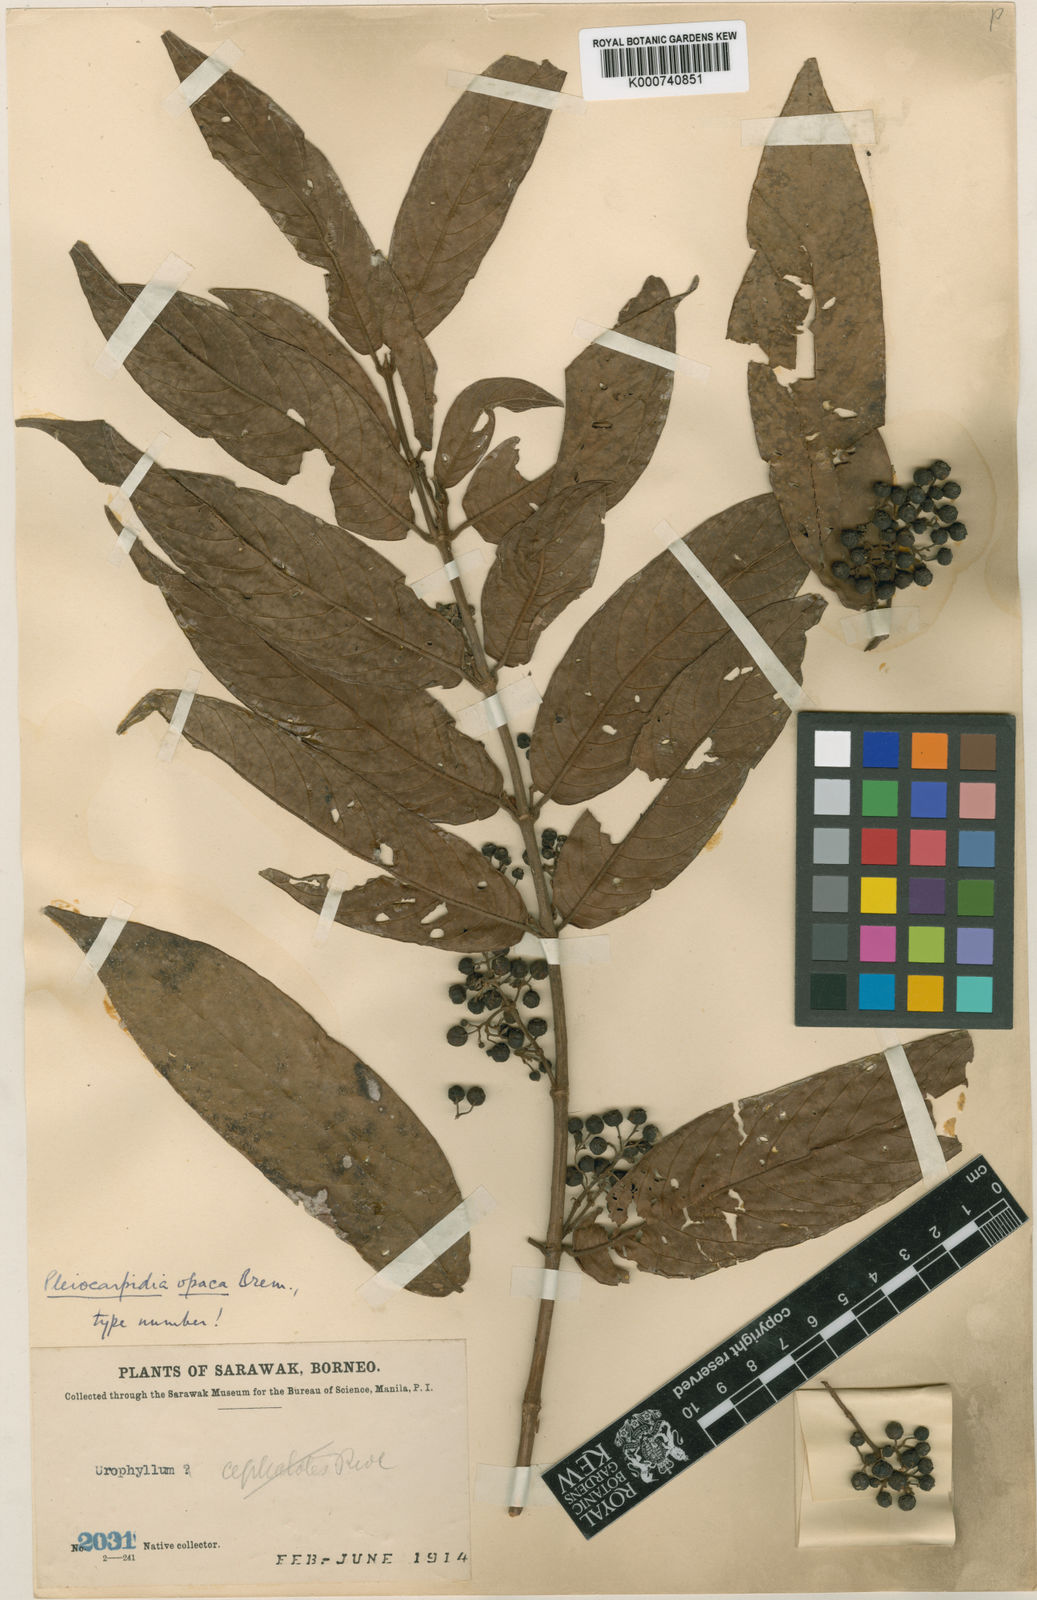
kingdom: Plantae
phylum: Tracheophyta
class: Magnoliopsida
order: Gentianales
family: Rubiaceae
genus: Urophyllum
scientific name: Urophyllum opacum
